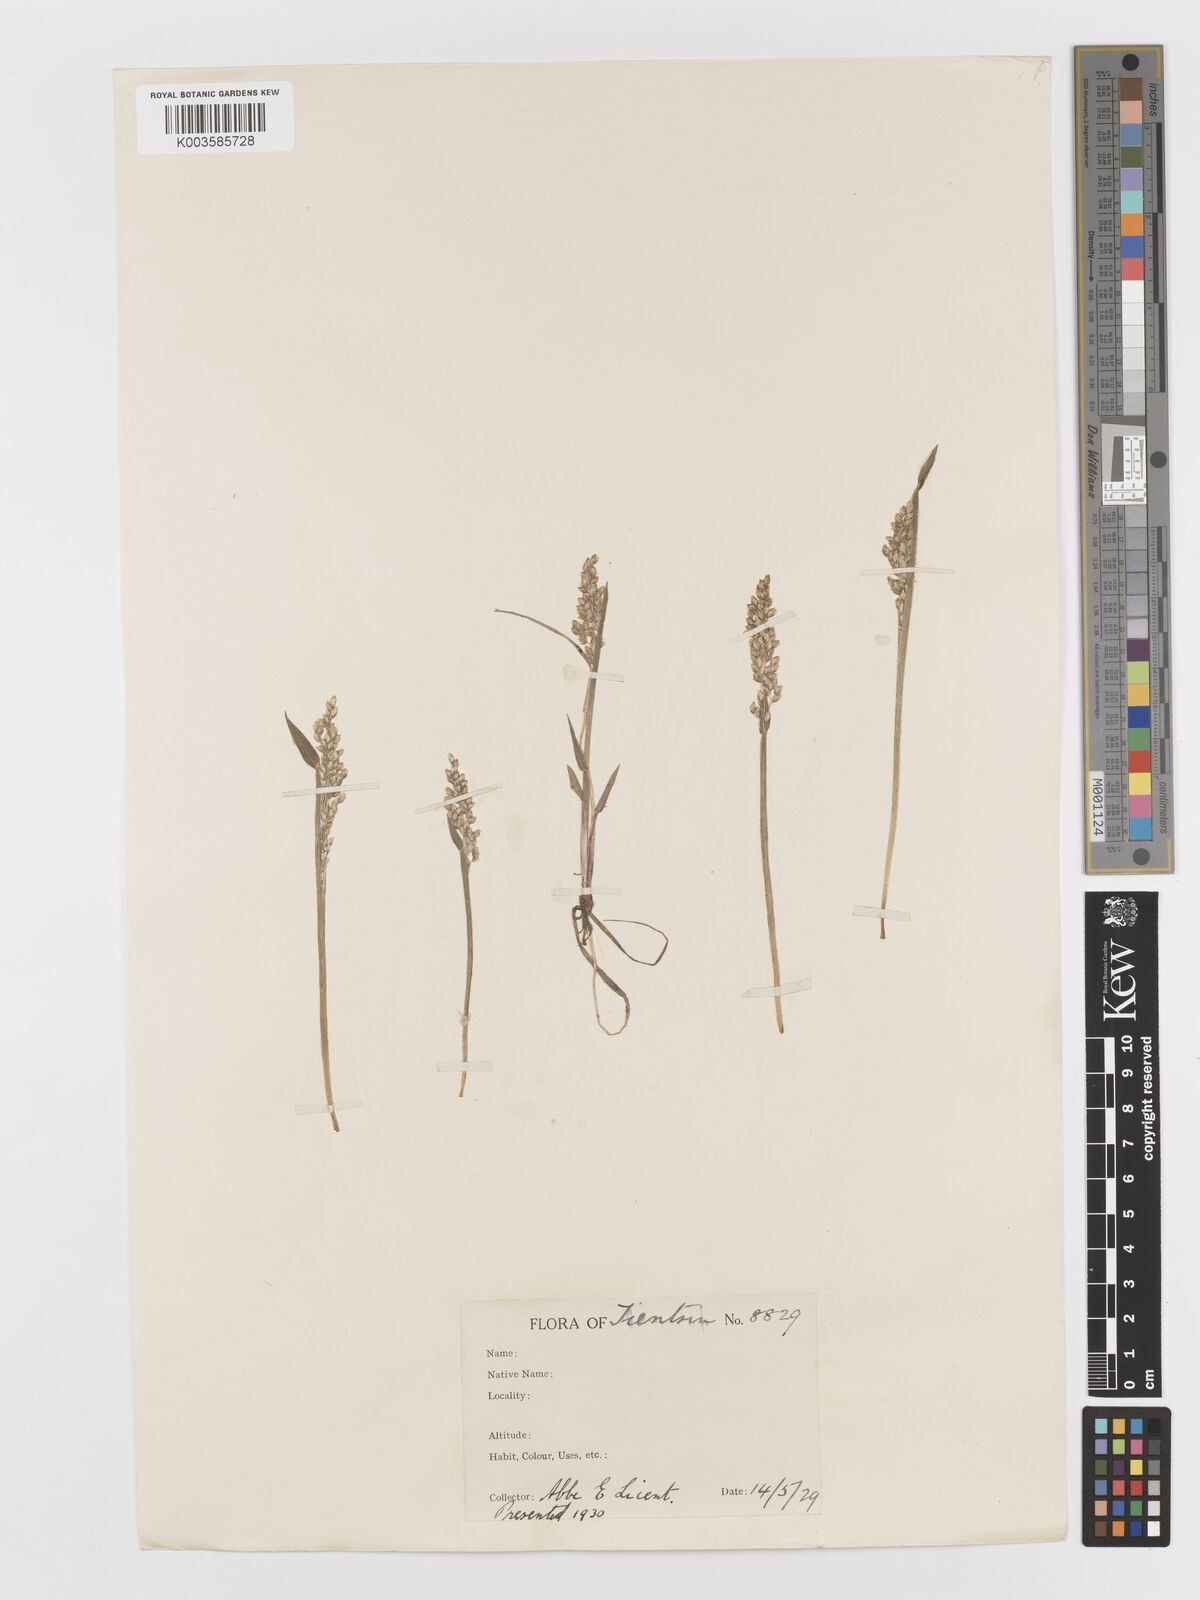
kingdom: Plantae
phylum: Tracheophyta
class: Liliopsida
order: Poales
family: Poaceae
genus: Anthoxanthum
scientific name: Anthoxanthum glabrum
